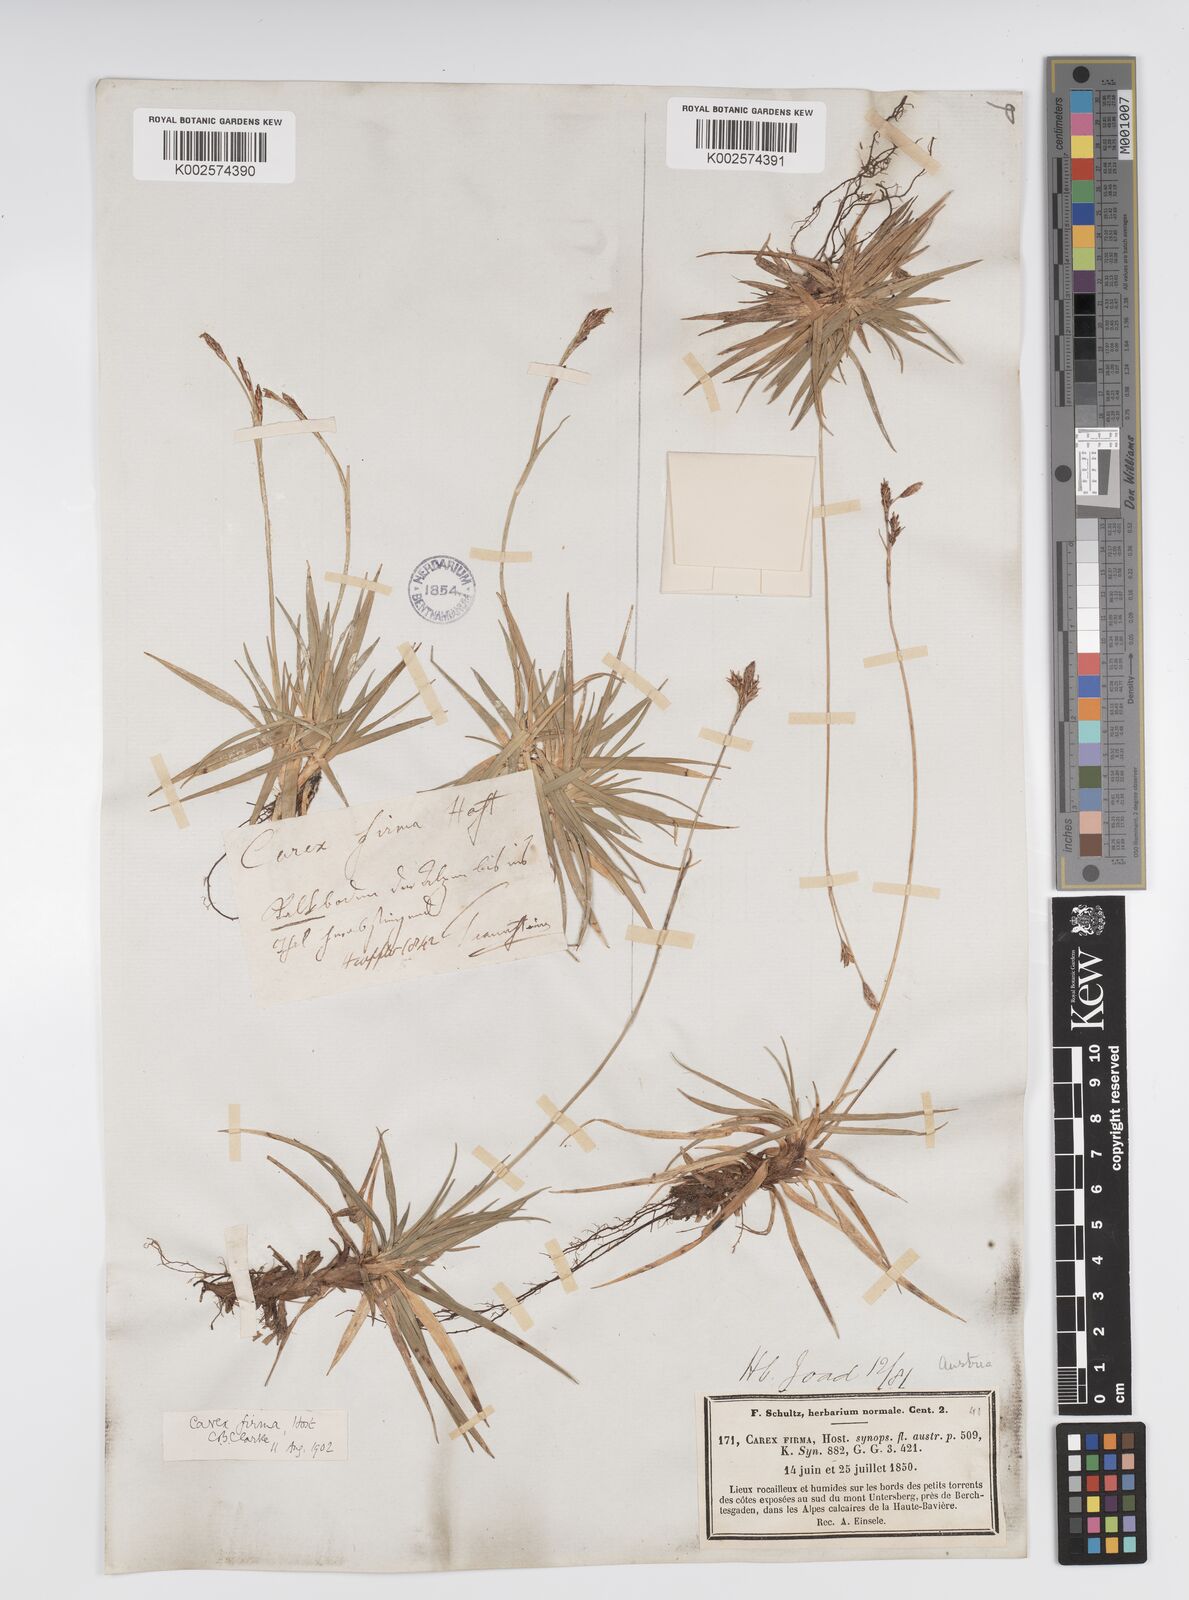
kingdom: Plantae
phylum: Tracheophyta
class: Liliopsida
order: Poales
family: Cyperaceae
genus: Carex
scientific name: Carex firma
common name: Dwarf pillow sedge
